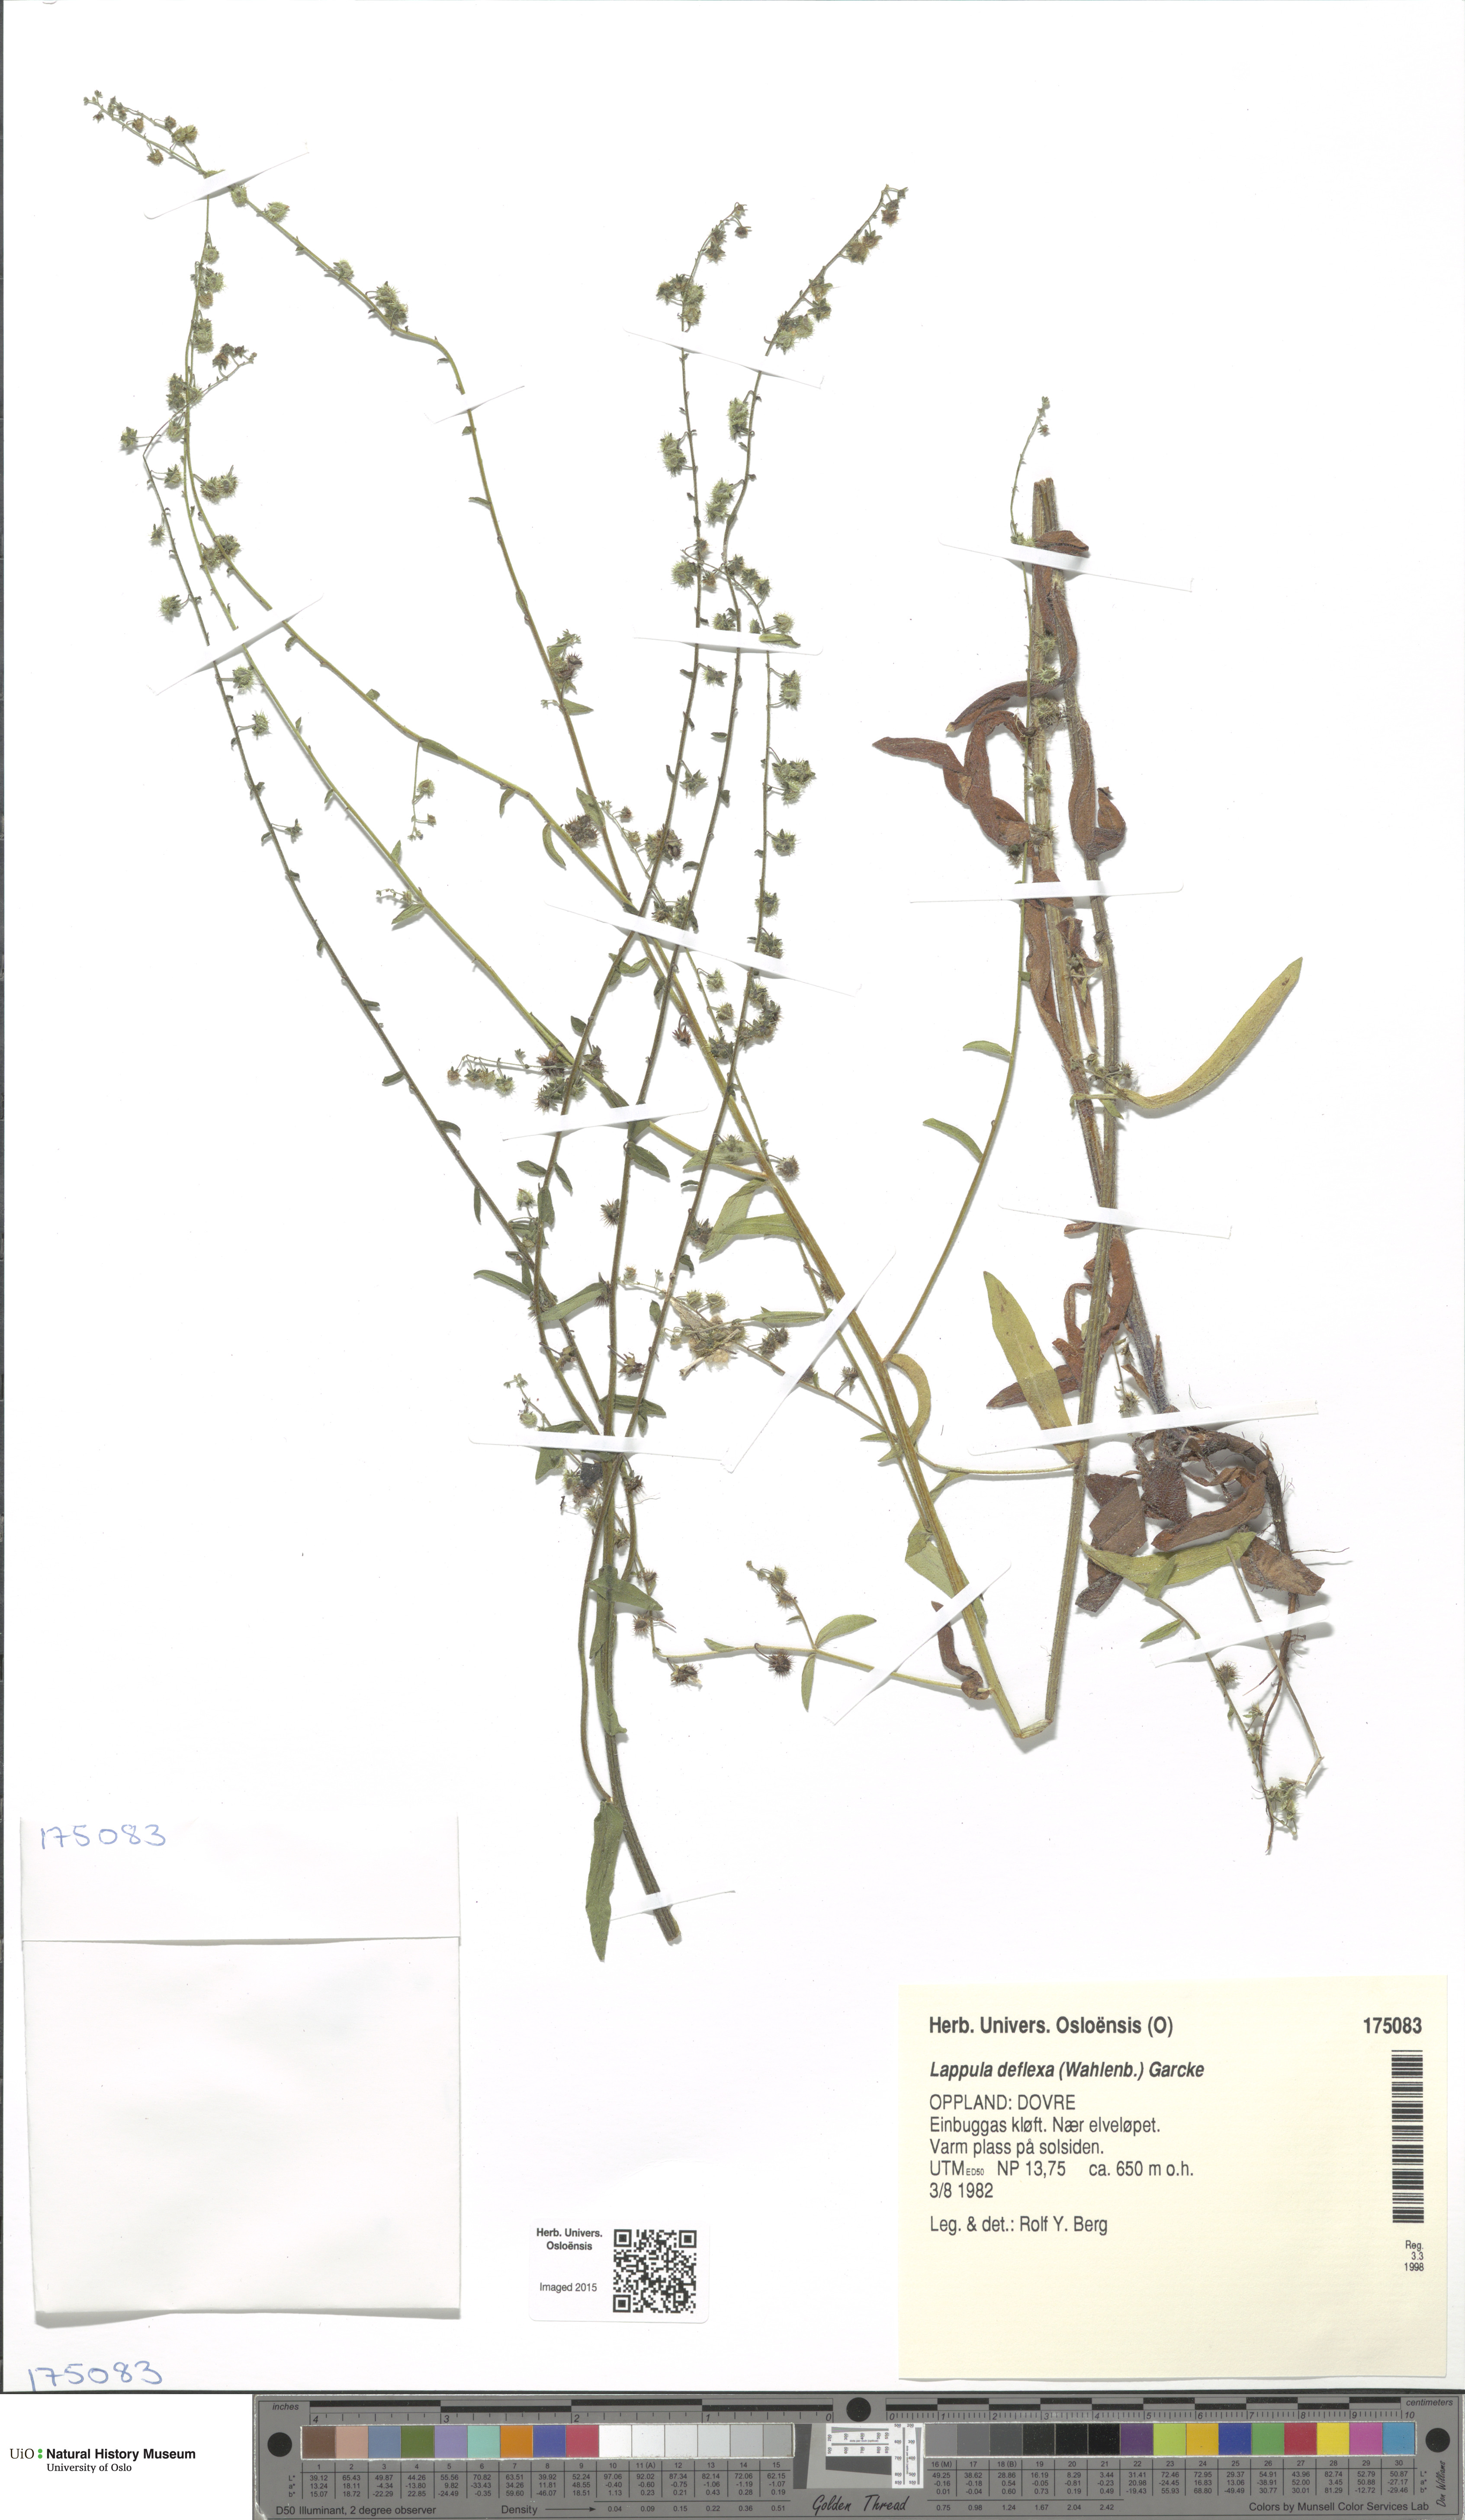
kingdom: Plantae
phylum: Tracheophyta
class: Magnoliopsida
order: Boraginales
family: Boraginaceae
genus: Hackelia
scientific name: Hackelia deflexa
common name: Nodding stickseed
